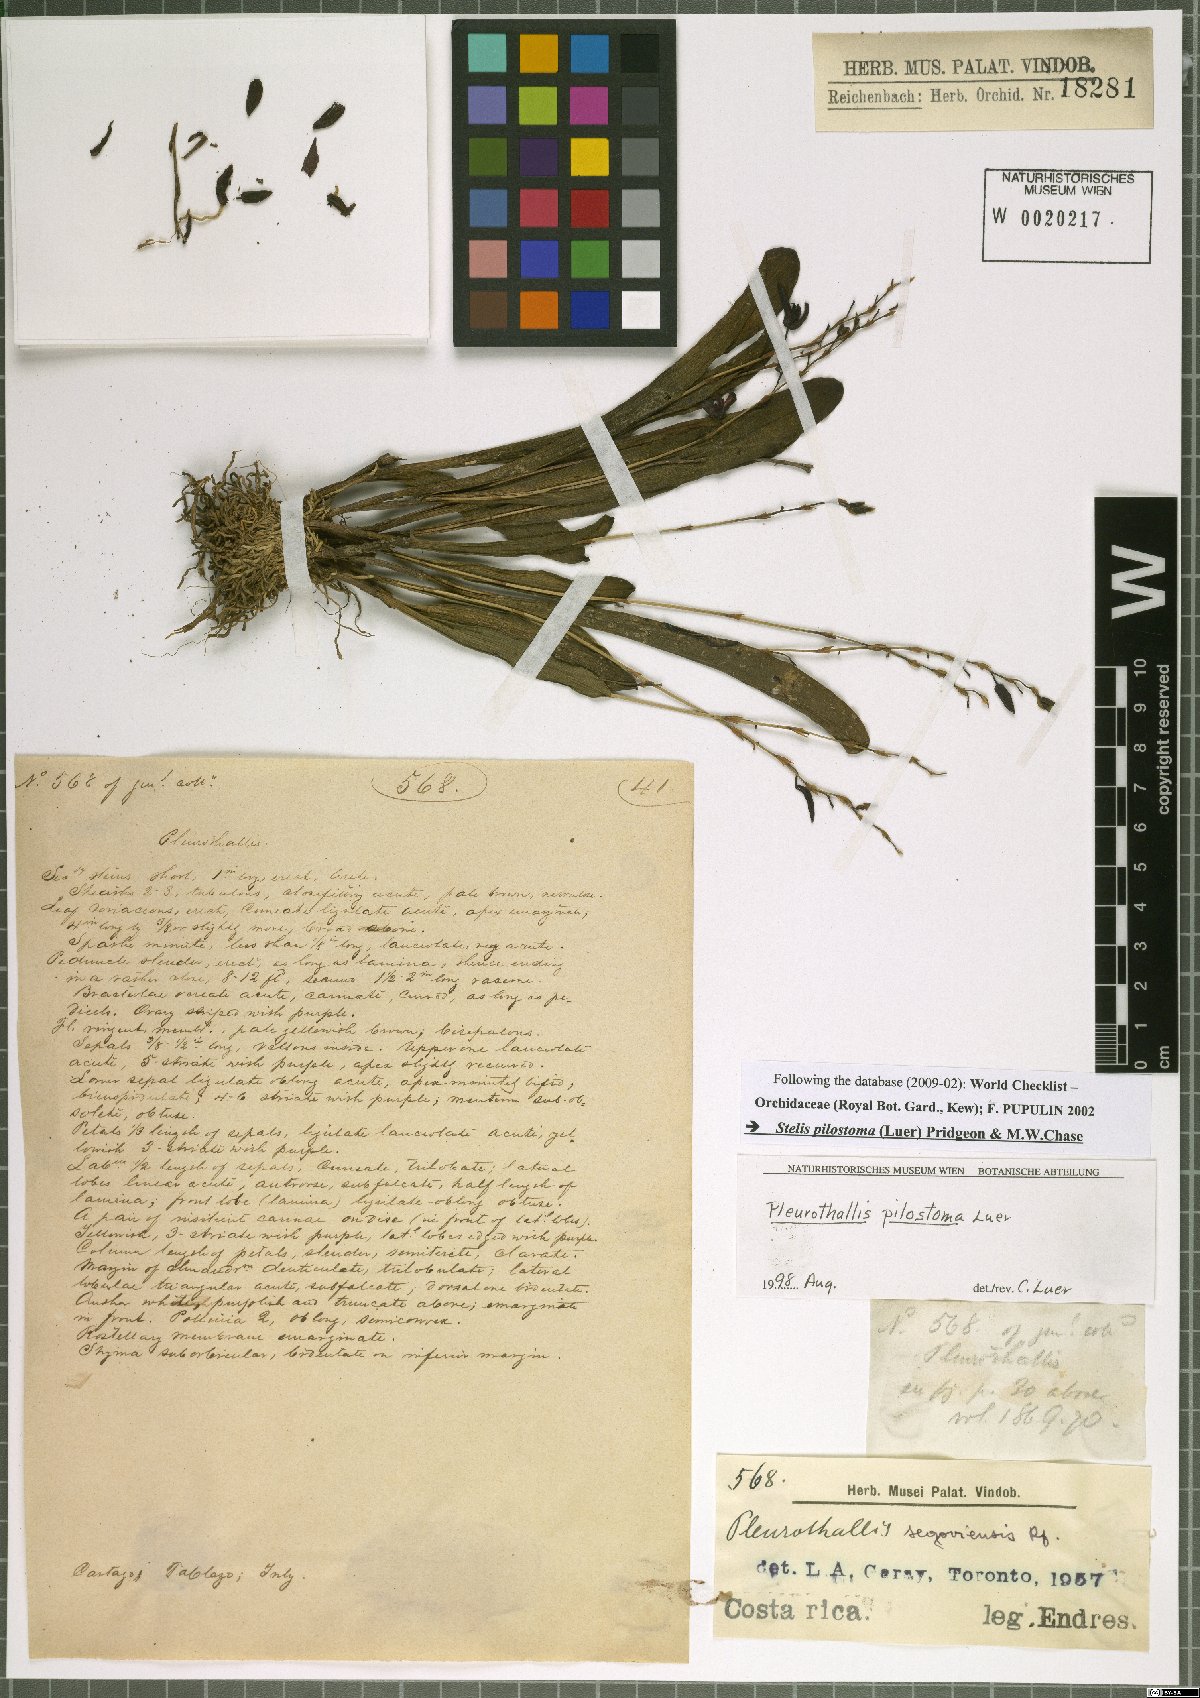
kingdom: Plantae
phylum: Tracheophyta
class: Liliopsida
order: Asparagales
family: Orchidaceae
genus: Stelis
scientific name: Stelis pilostoma
